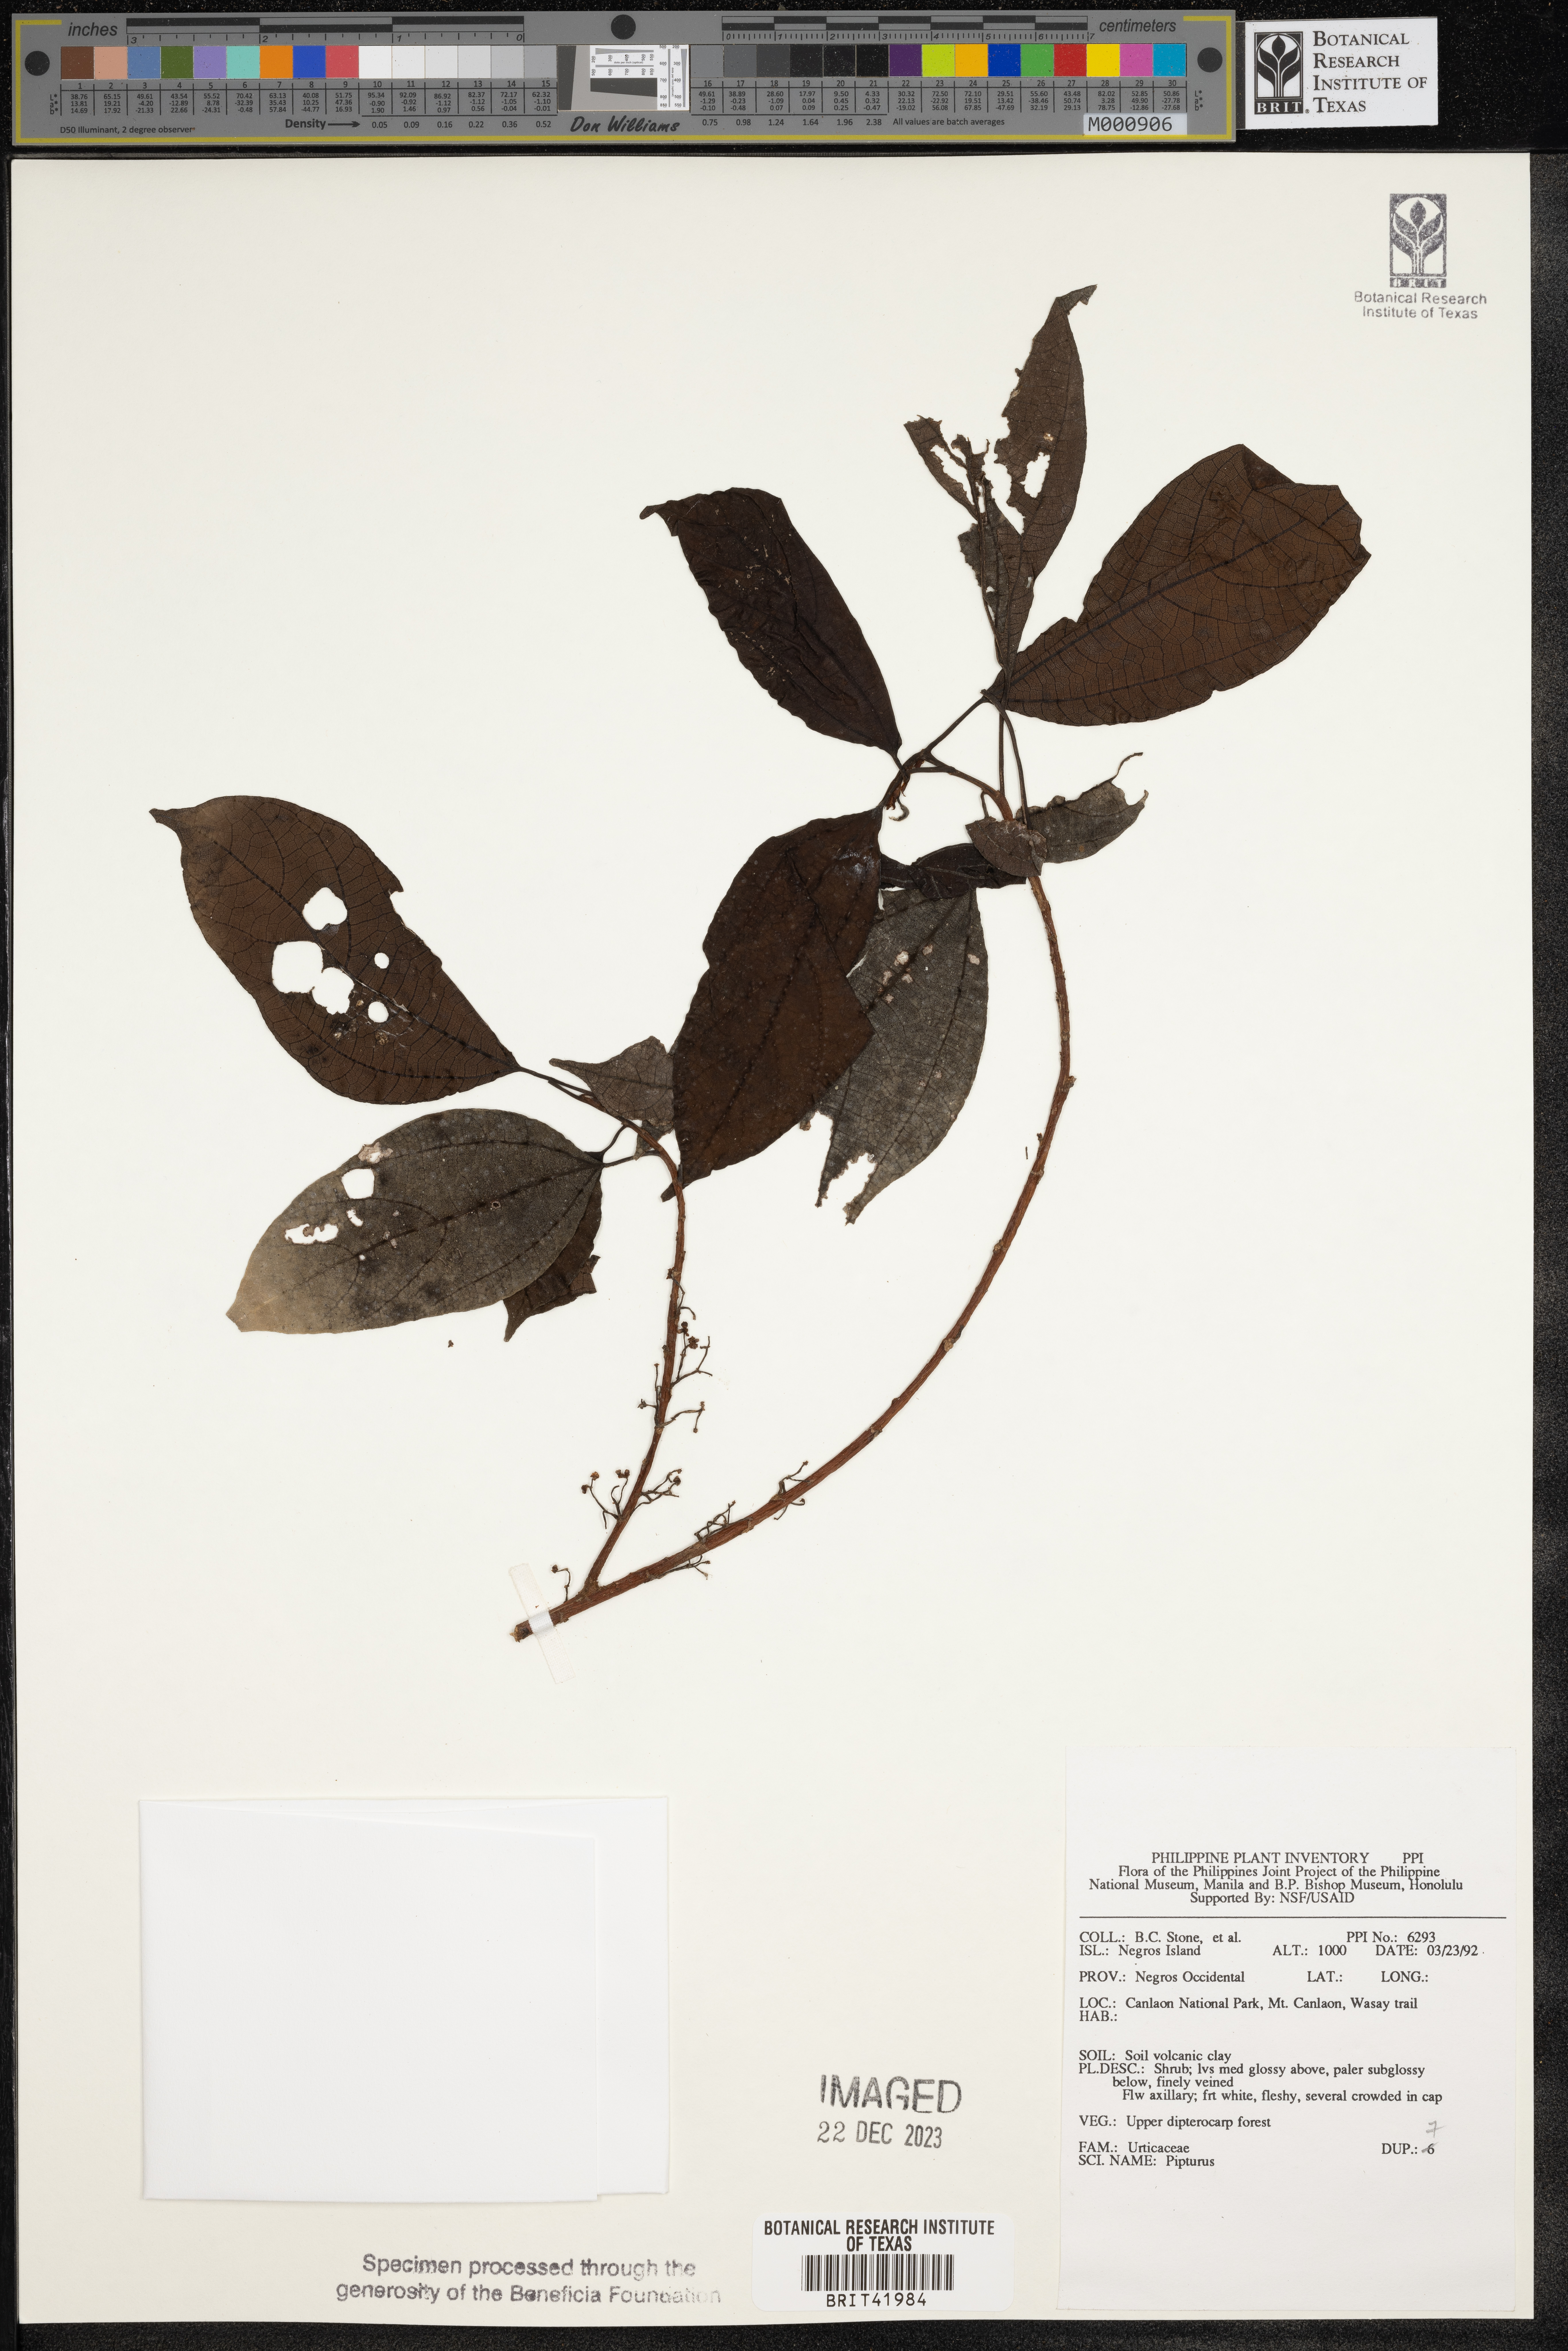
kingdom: Plantae
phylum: Tracheophyta
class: Magnoliopsida
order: Rosales
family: Urticaceae
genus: Pipturus
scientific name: Pipturus
